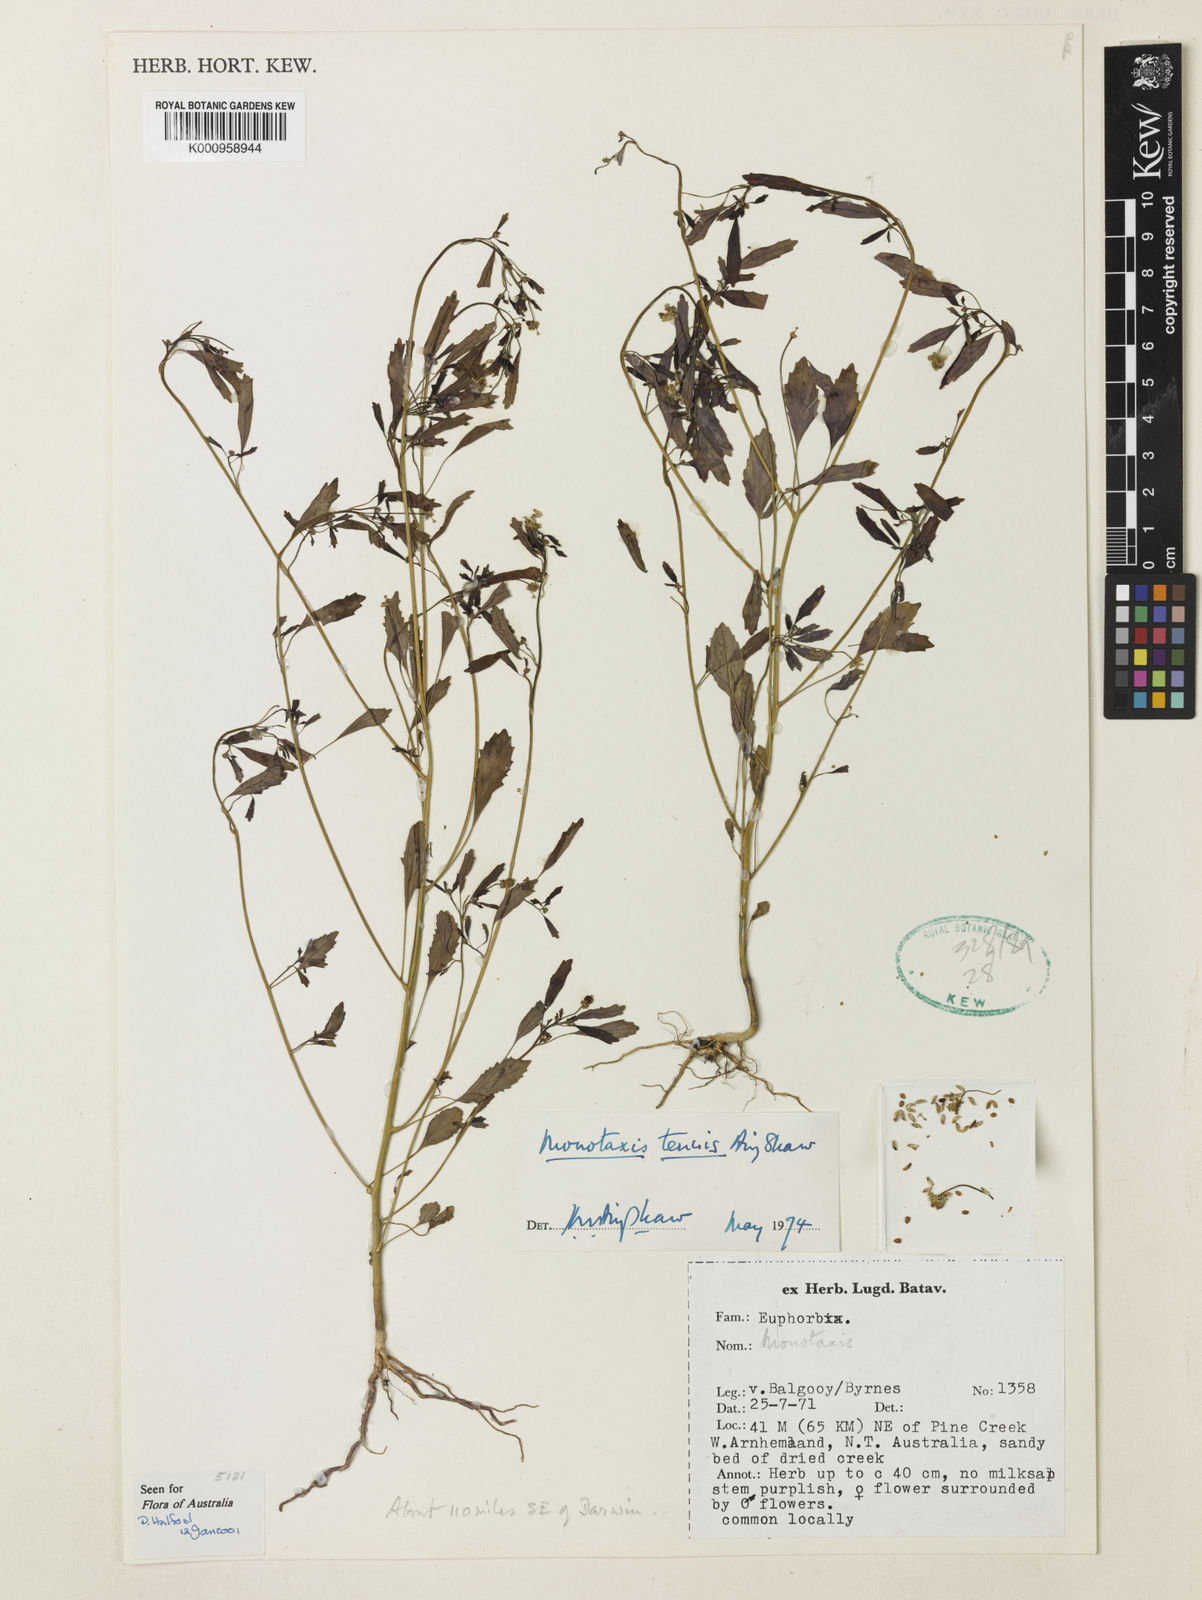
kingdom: Plantae
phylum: Tracheophyta
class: Magnoliopsida
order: Malpighiales
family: Euphorbiaceae
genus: Monotaxis
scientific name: Monotaxis tenuis
